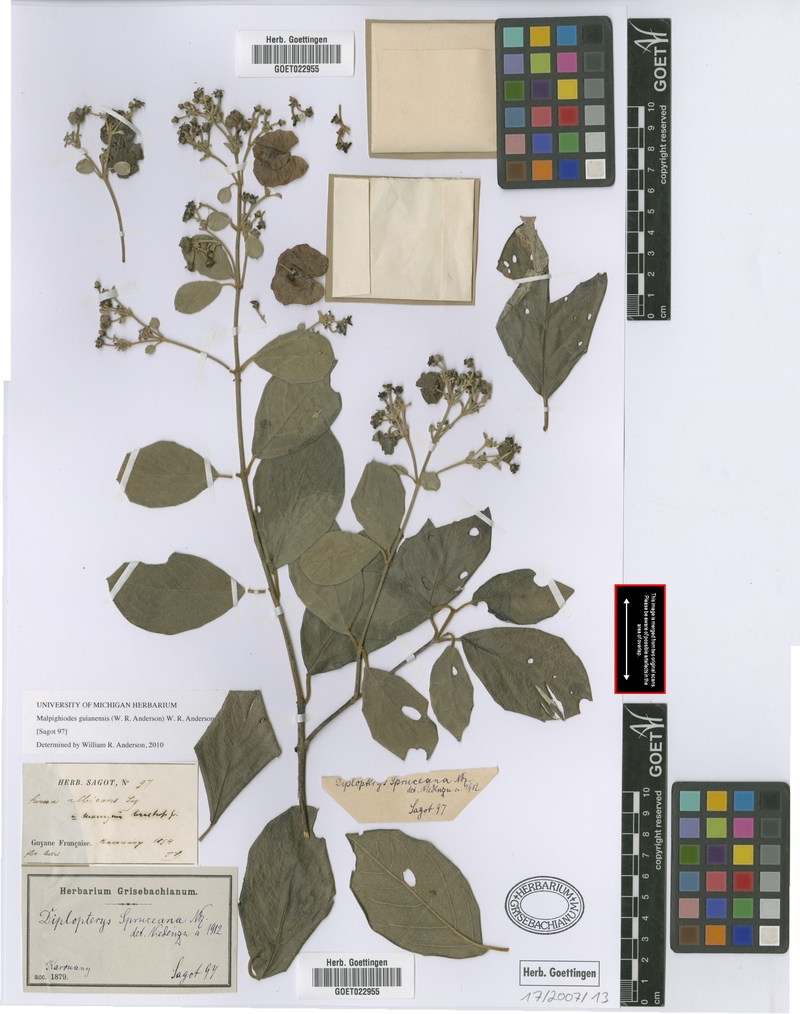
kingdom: Plantae
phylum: Tracheophyta
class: Magnoliopsida
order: Malpighiales
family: Malpighiaceae
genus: Malpighiodes
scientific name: Malpighiodes guianensis
